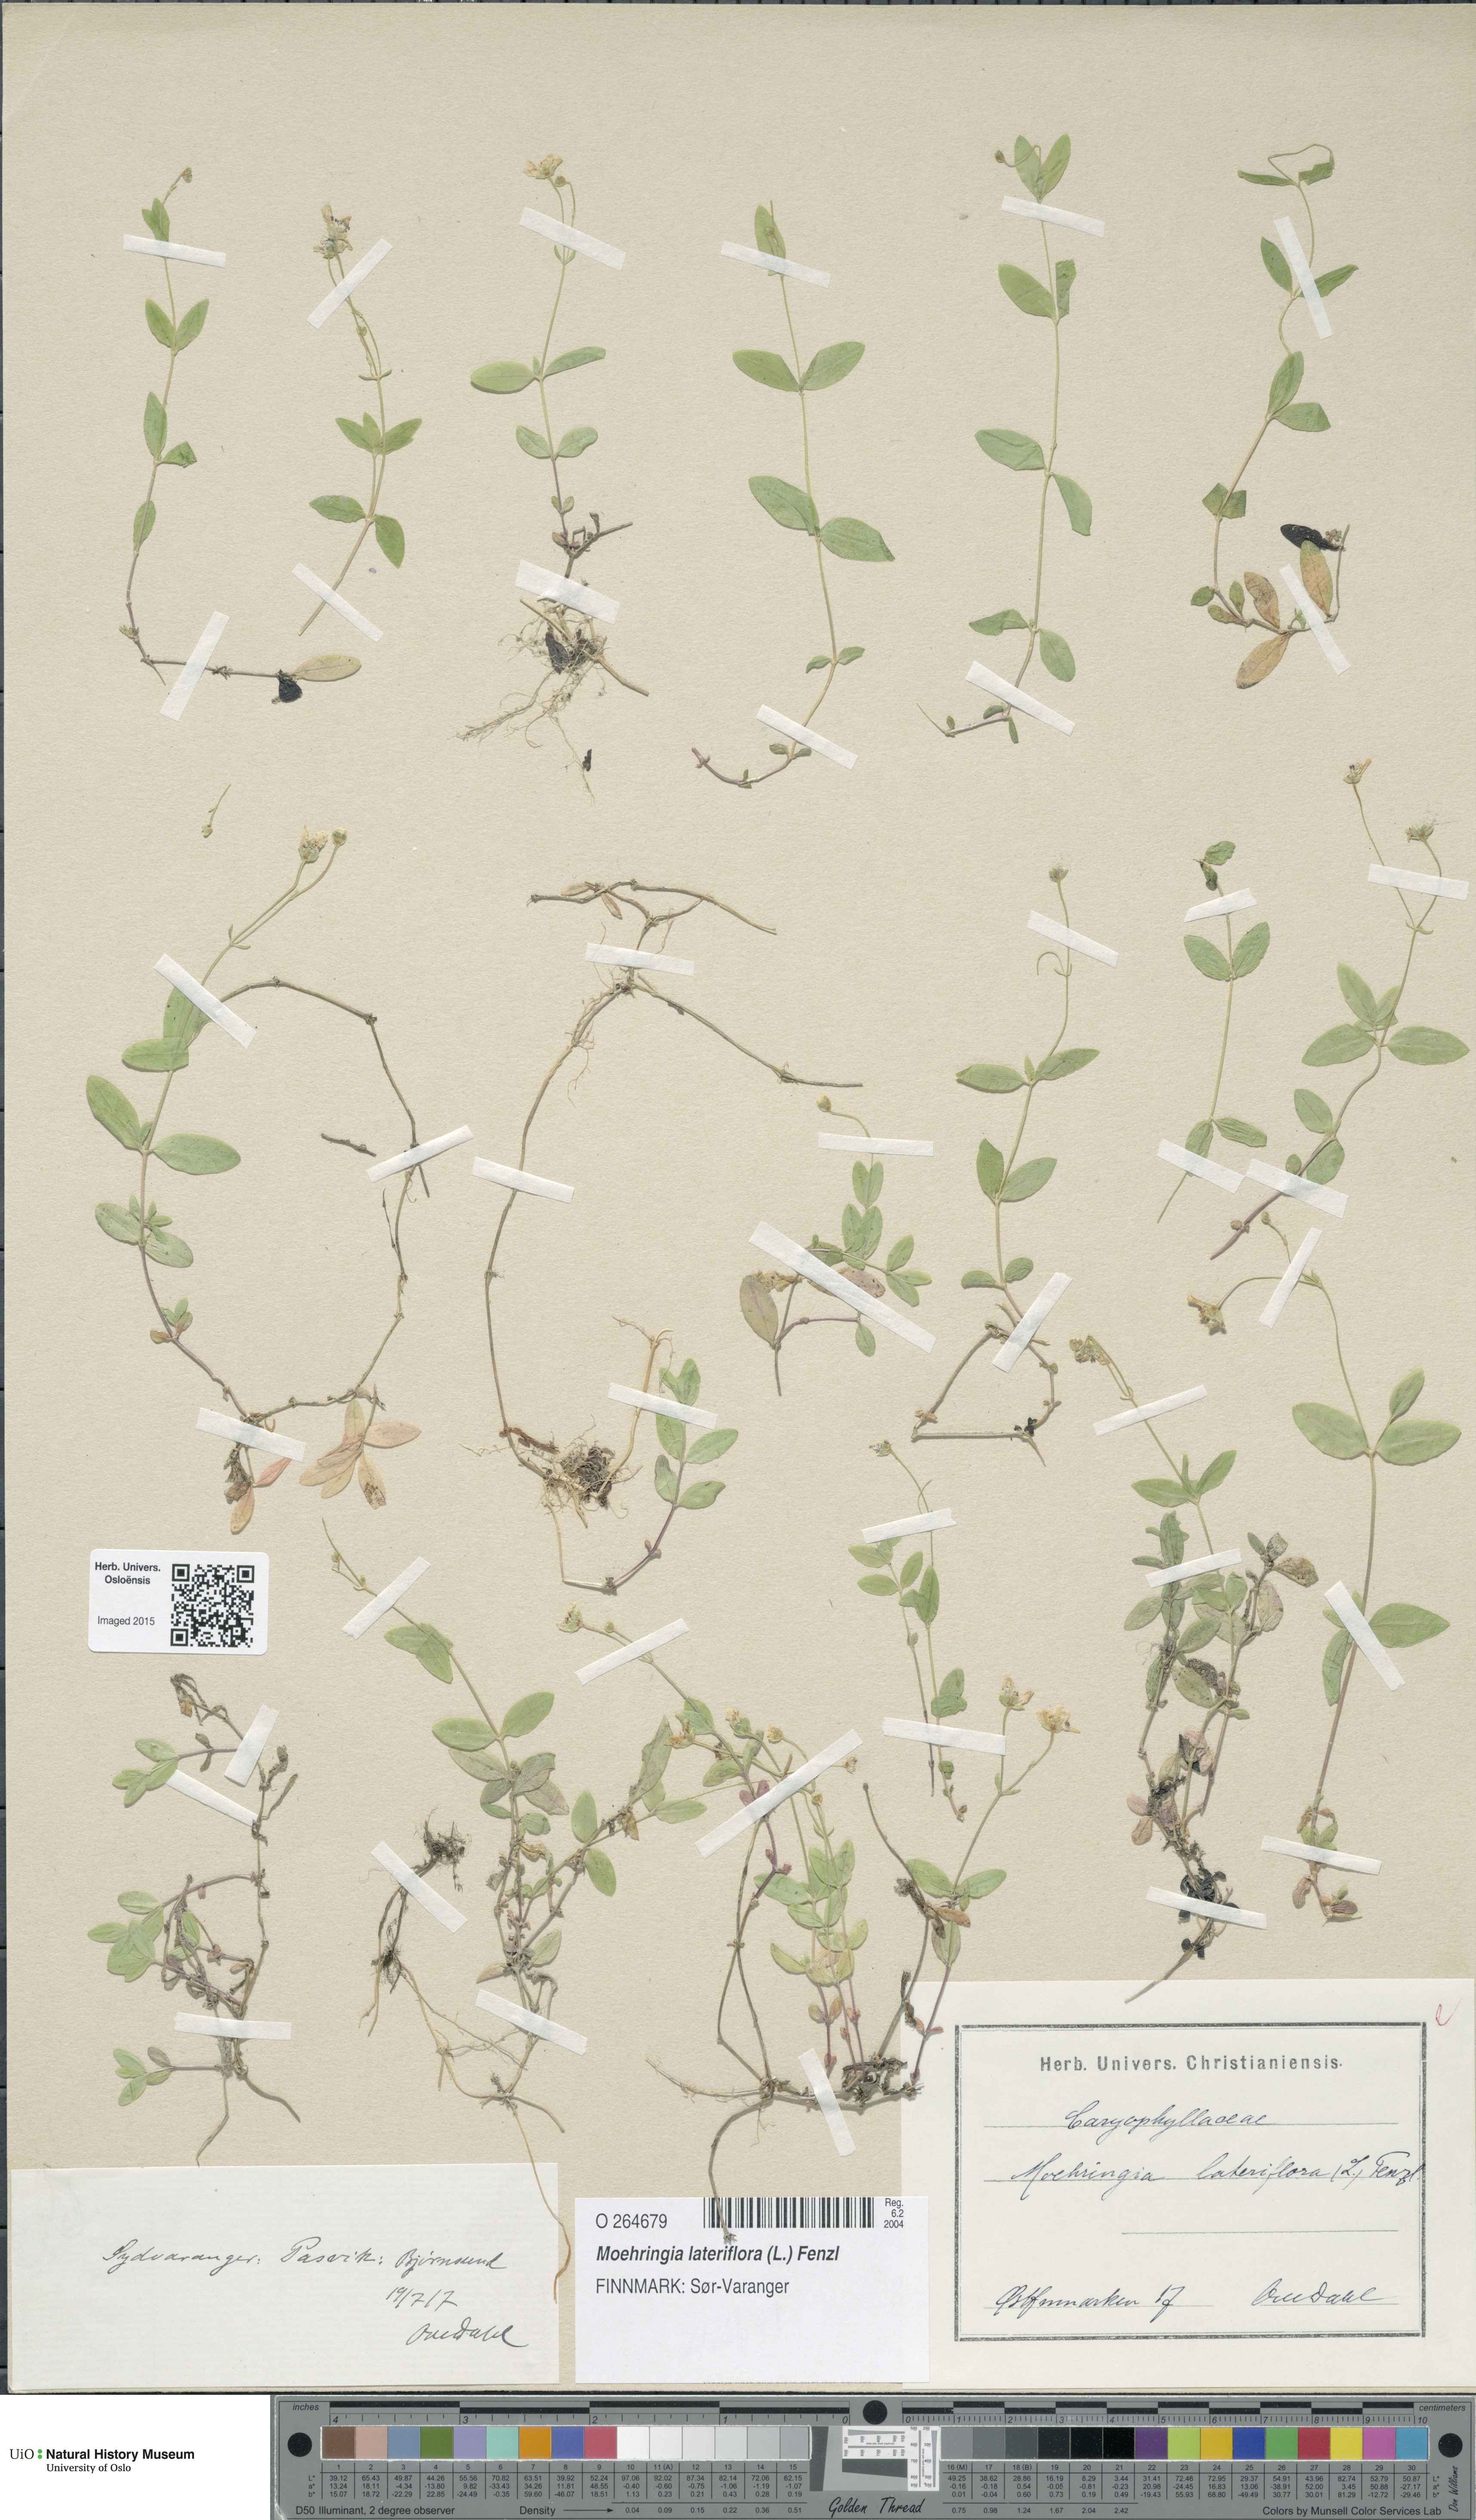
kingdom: Plantae
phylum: Tracheophyta
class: Magnoliopsida
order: Caryophyllales
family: Caryophyllaceae
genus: Moehringia
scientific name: Moehringia lateriflora
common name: Blunt-leaved sandwort
